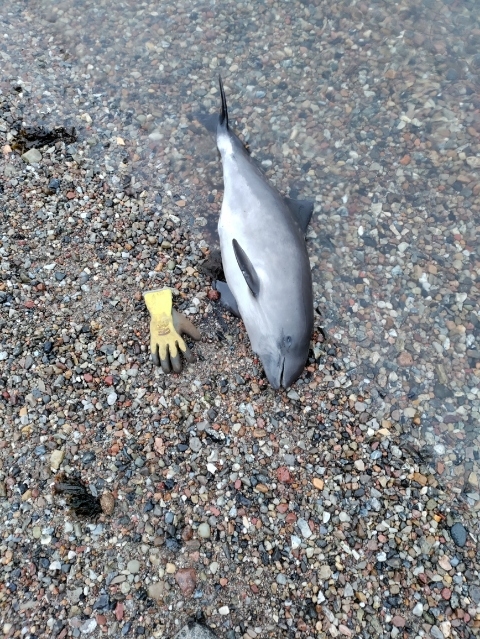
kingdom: Animalia
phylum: Chordata
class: Mammalia
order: Cetacea
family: Phocoenidae
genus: Phocoena
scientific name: Phocoena phocoena
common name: Marsvin
